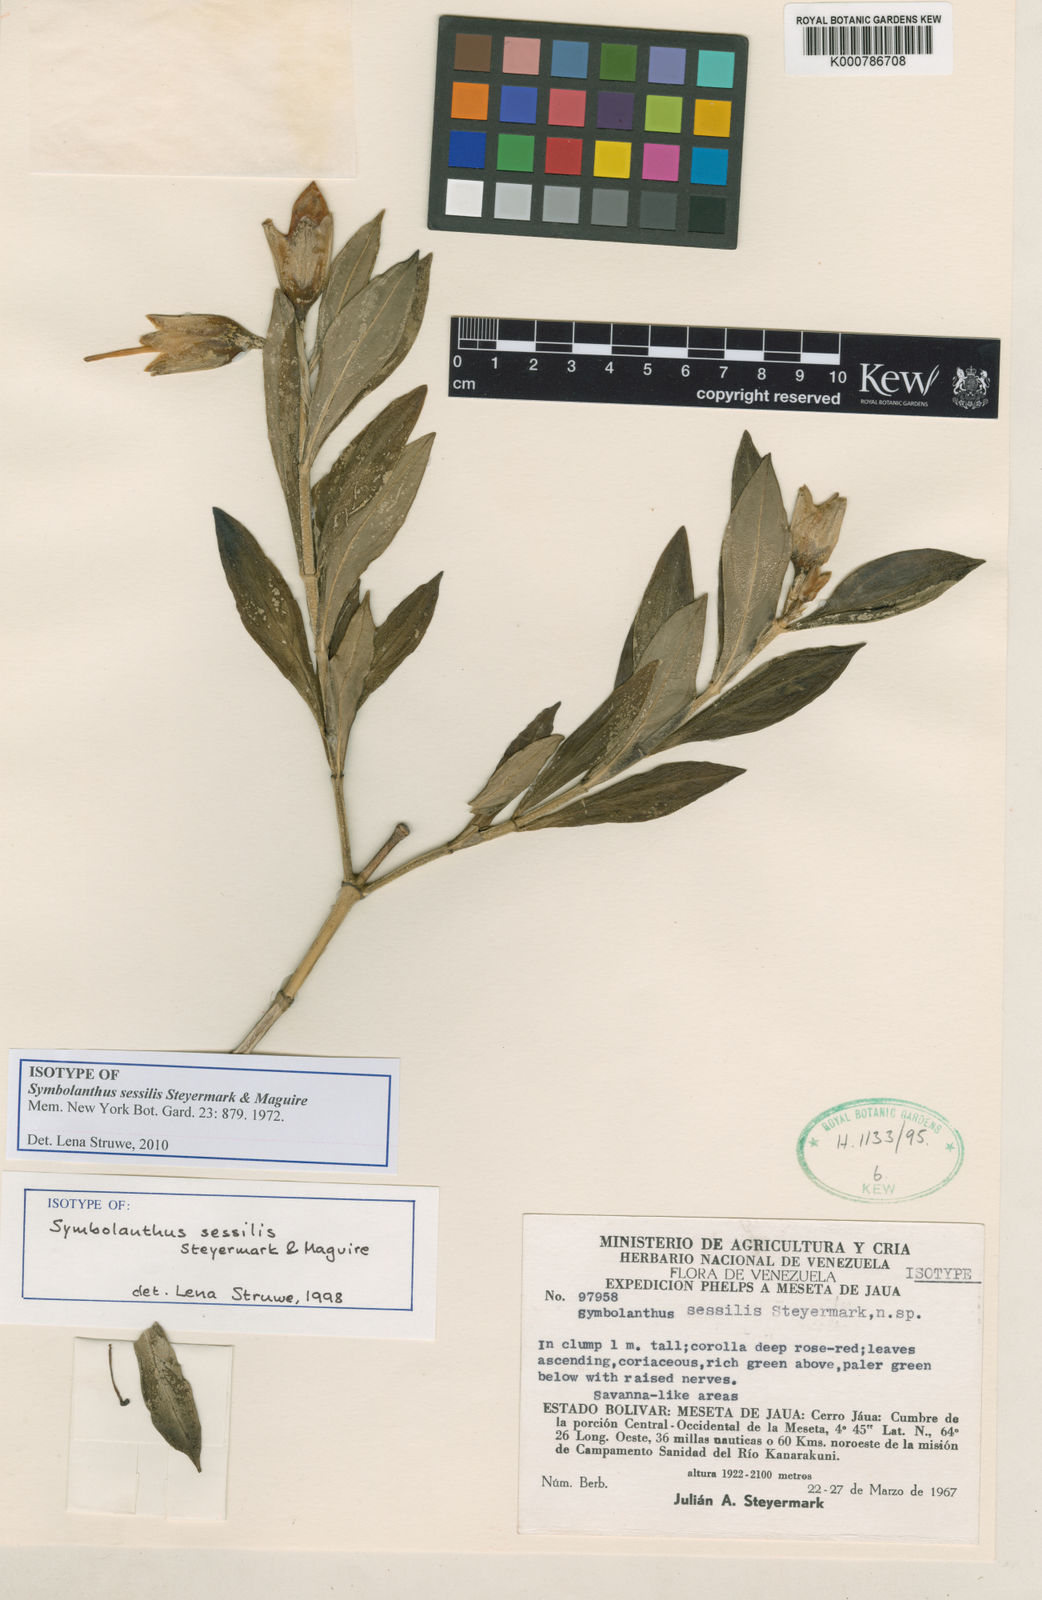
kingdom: Plantae
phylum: Tracheophyta
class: Magnoliopsida
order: Gentianales
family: Gentianaceae
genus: Symbolanthus
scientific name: Symbolanthus sessilis
